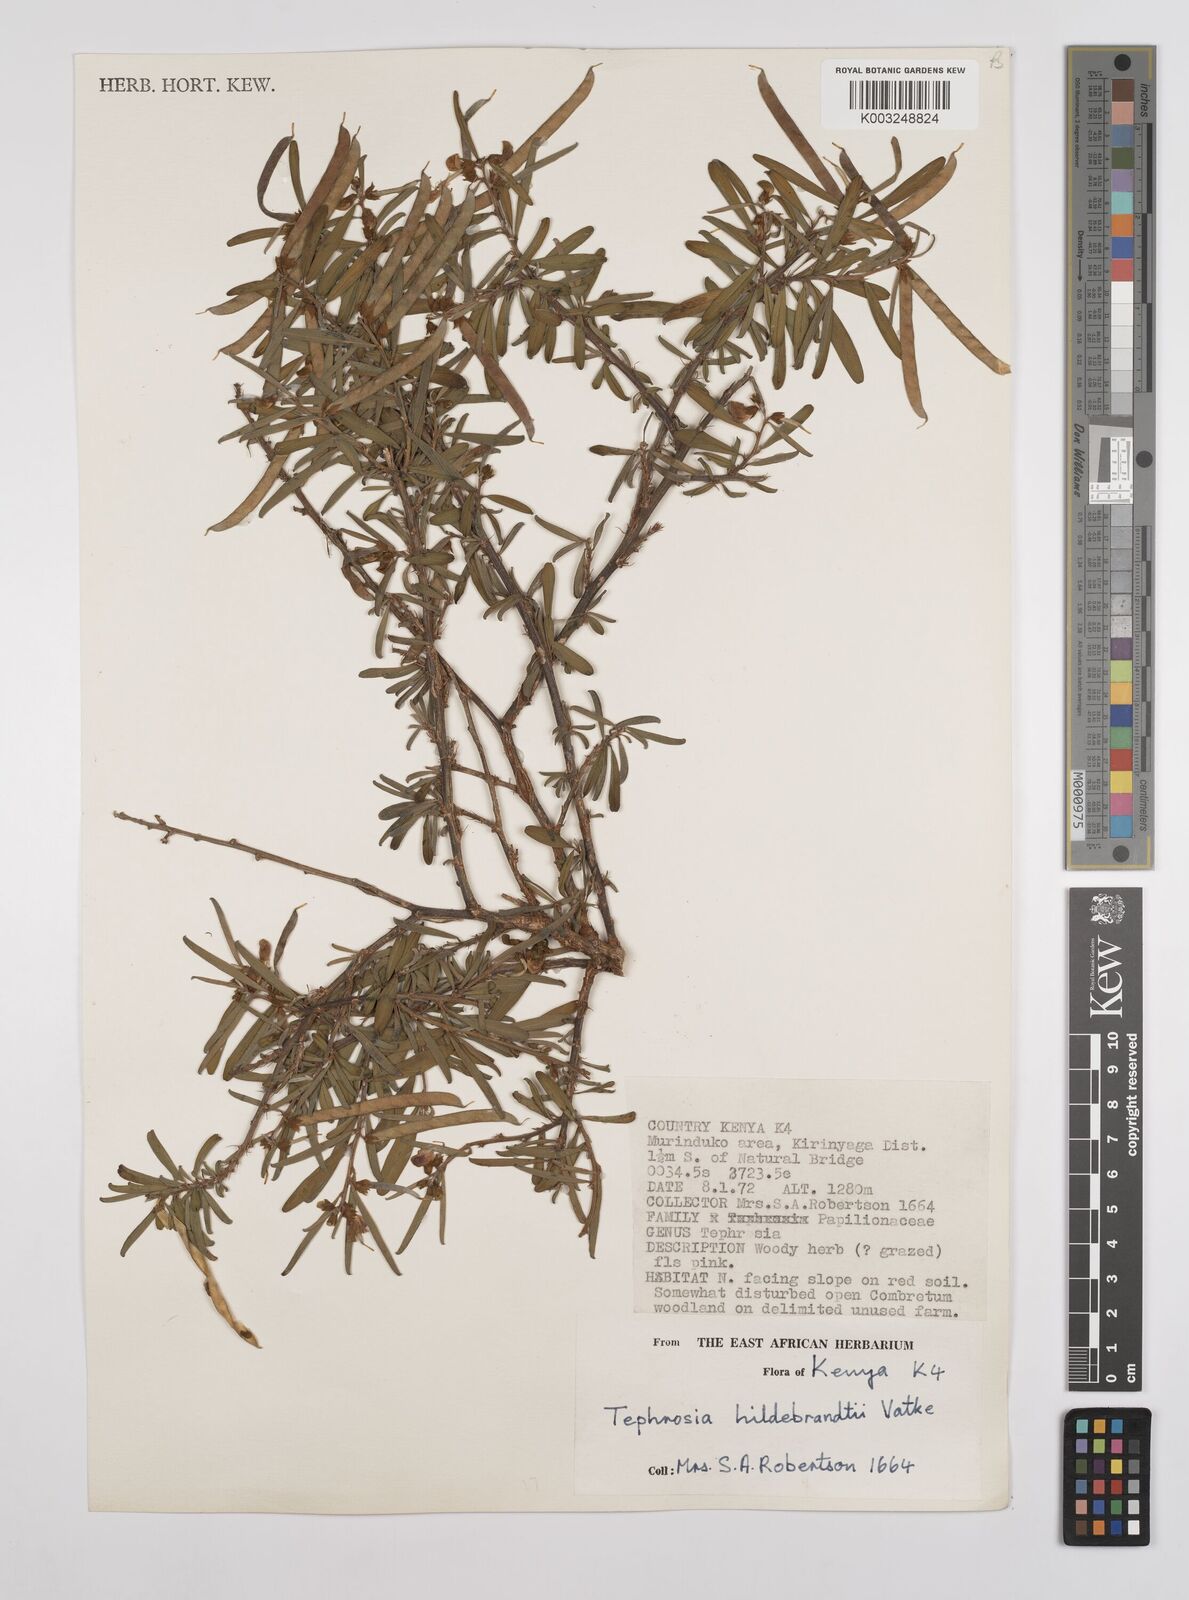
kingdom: Plantae
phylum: Tracheophyta
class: Magnoliopsida
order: Fabales
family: Fabaceae
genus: Tephrosia
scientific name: Tephrosia hildebrandtii
